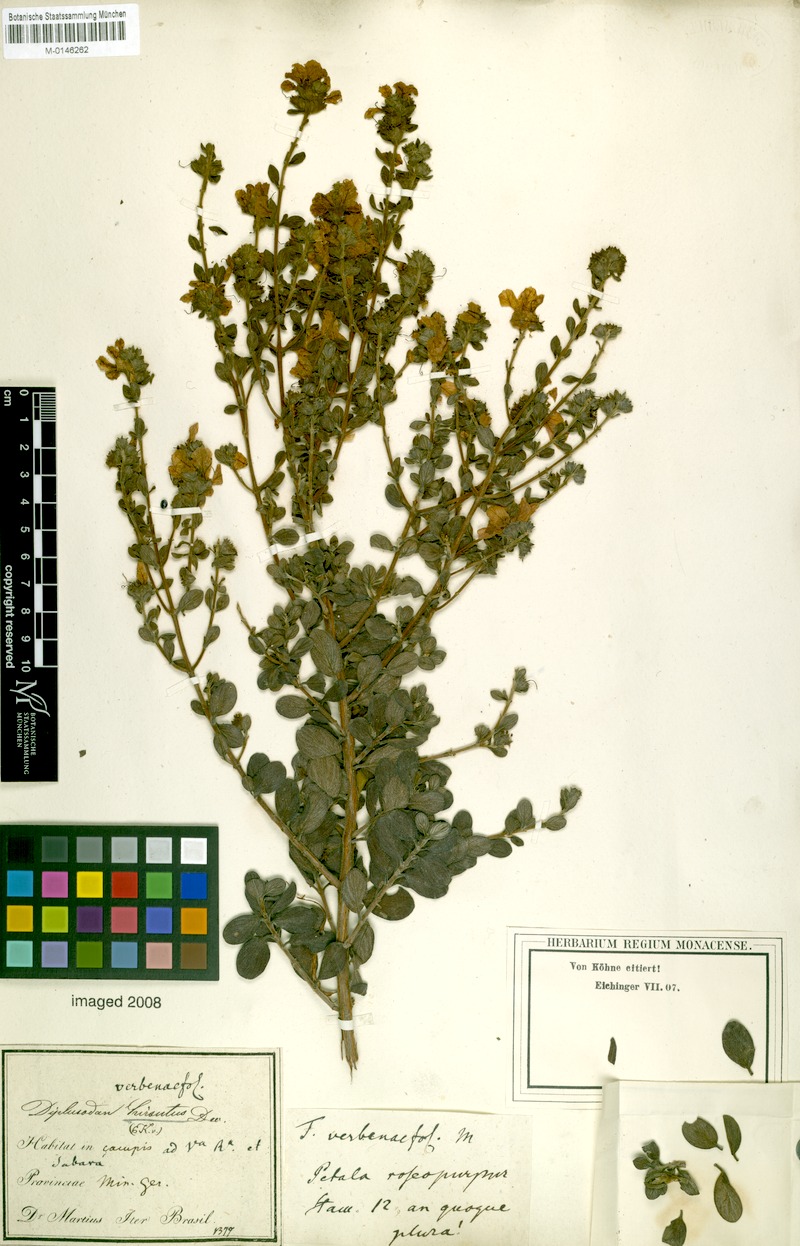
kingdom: Plantae
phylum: Tracheophyta
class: Magnoliopsida
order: Myrtales
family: Lythraceae
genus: Diplusodon
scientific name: Diplusodon hirsutus
